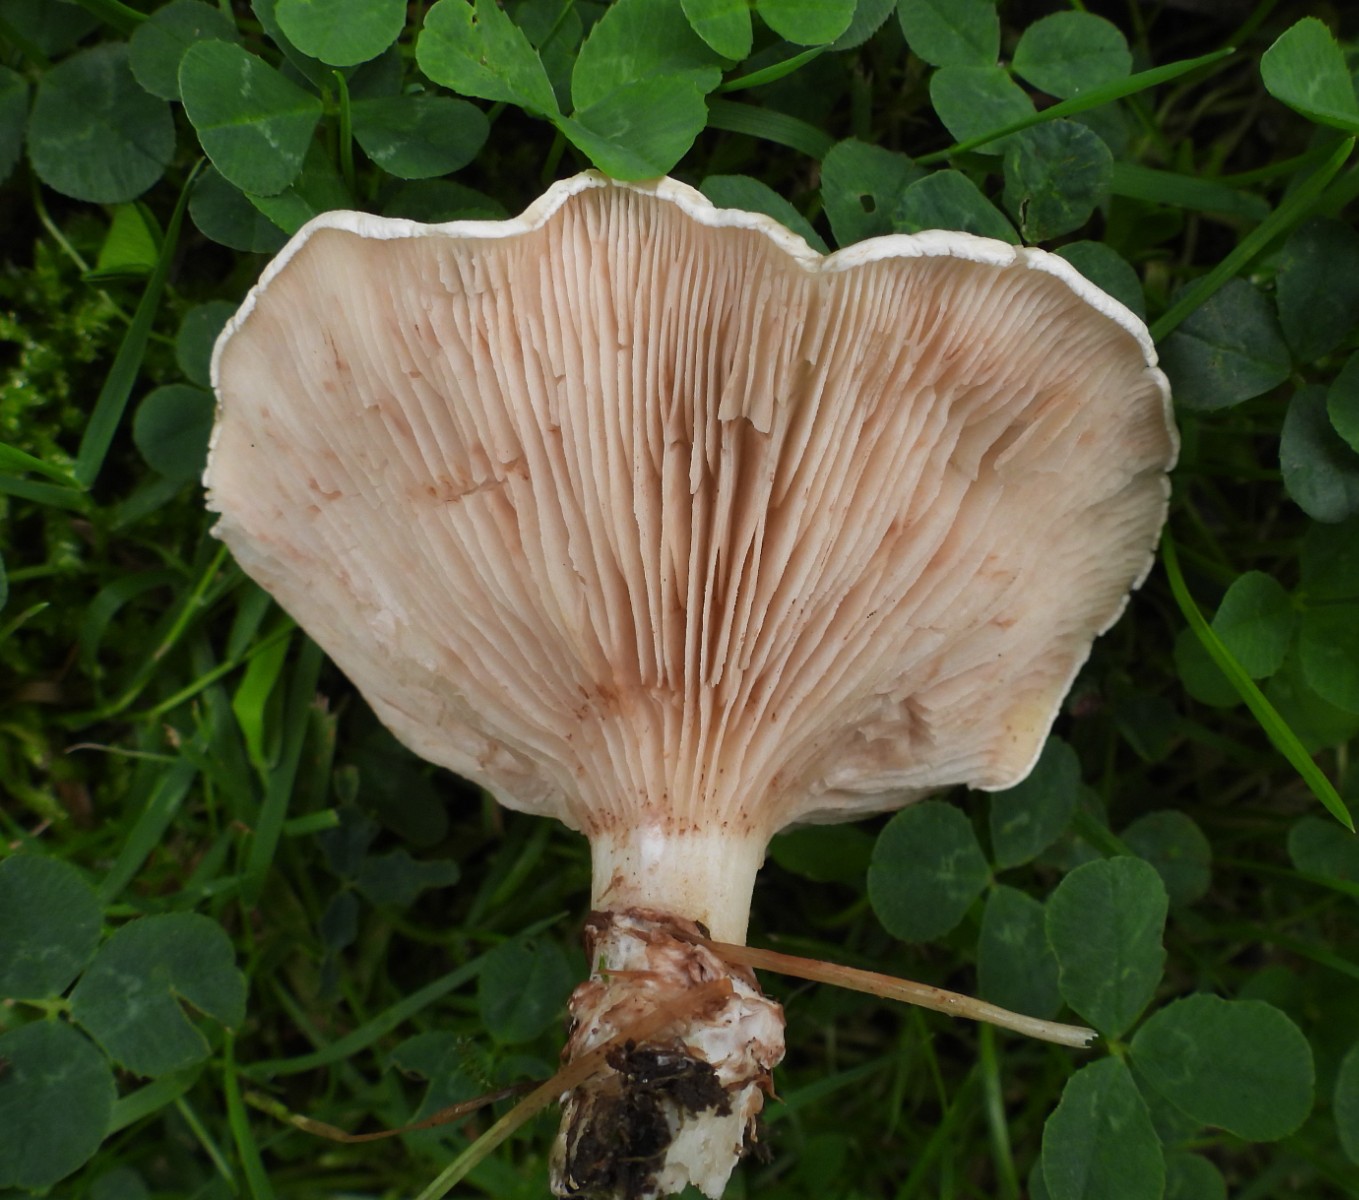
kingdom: Fungi
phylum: Basidiomycota
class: Agaricomycetes
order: Agaricales
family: Entolomataceae
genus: Clitopilus
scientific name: Clitopilus prunulus
